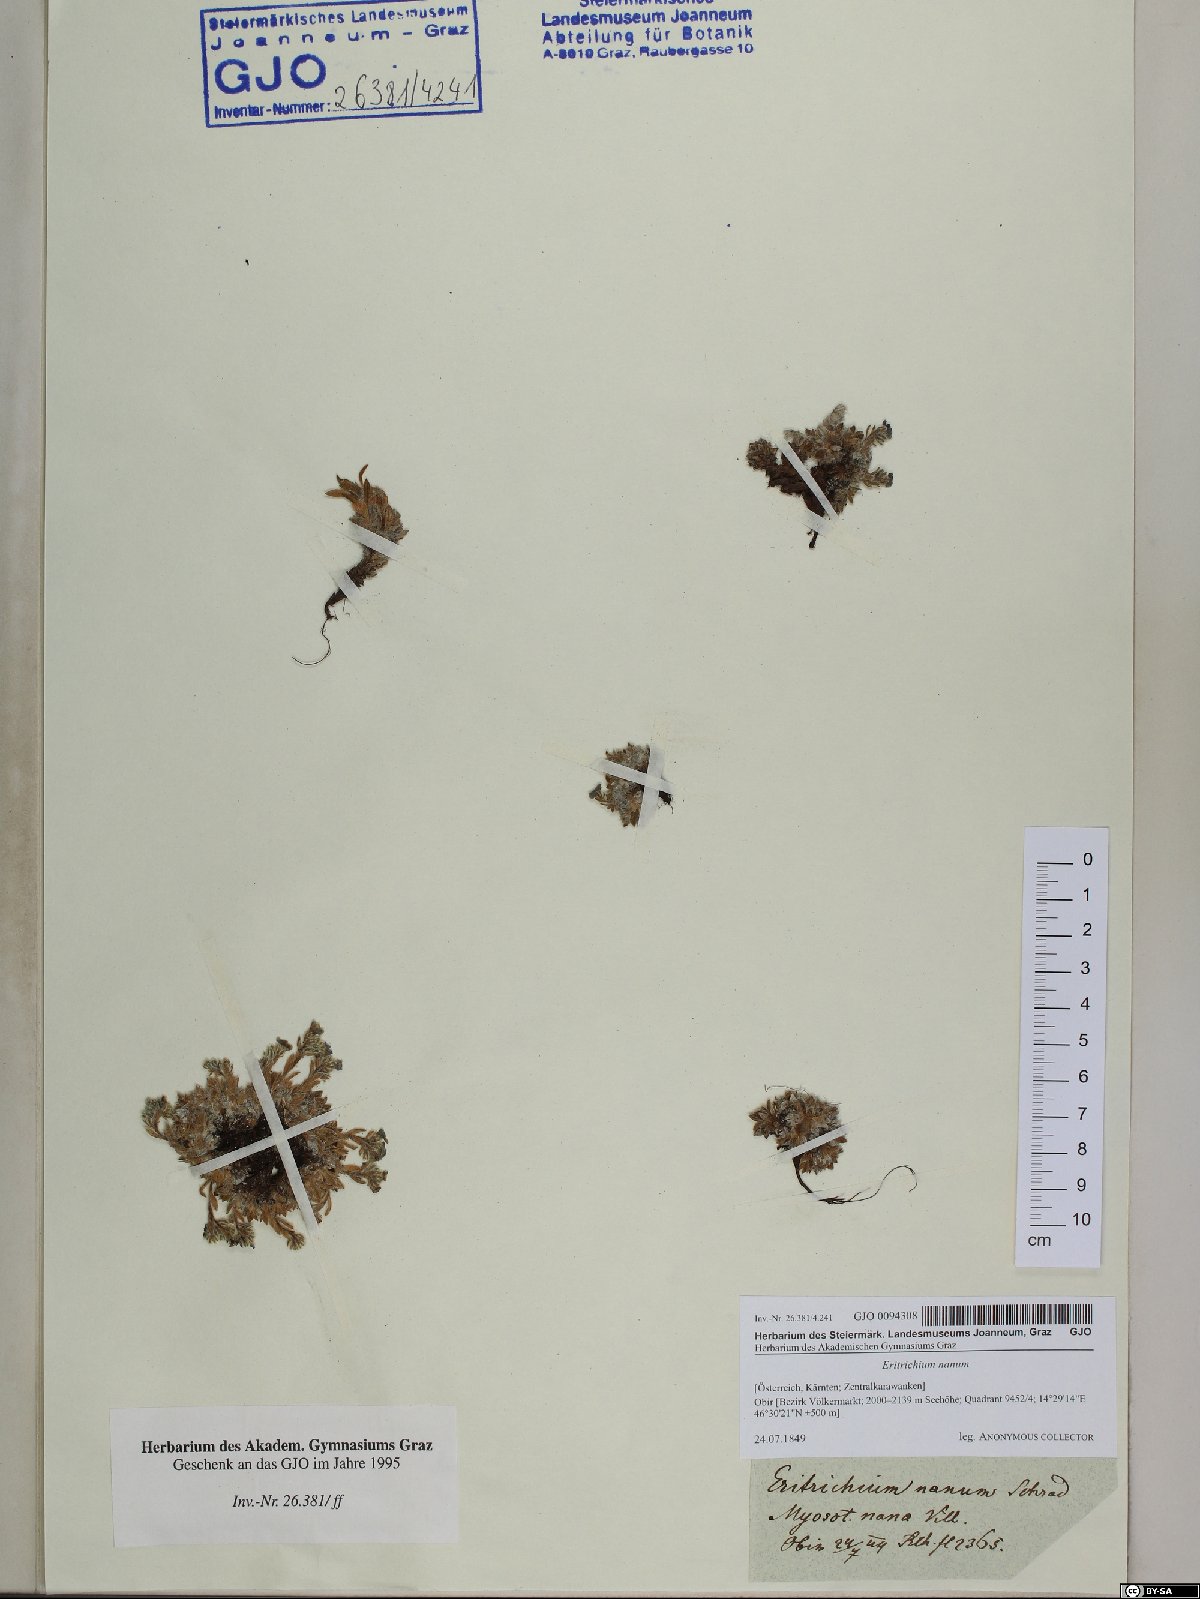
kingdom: Plantae
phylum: Tracheophyta
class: Magnoliopsida
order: Boraginales
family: Boraginaceae
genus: Eritrichium
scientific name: Eritrichium nanum
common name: King-of-the-alps
